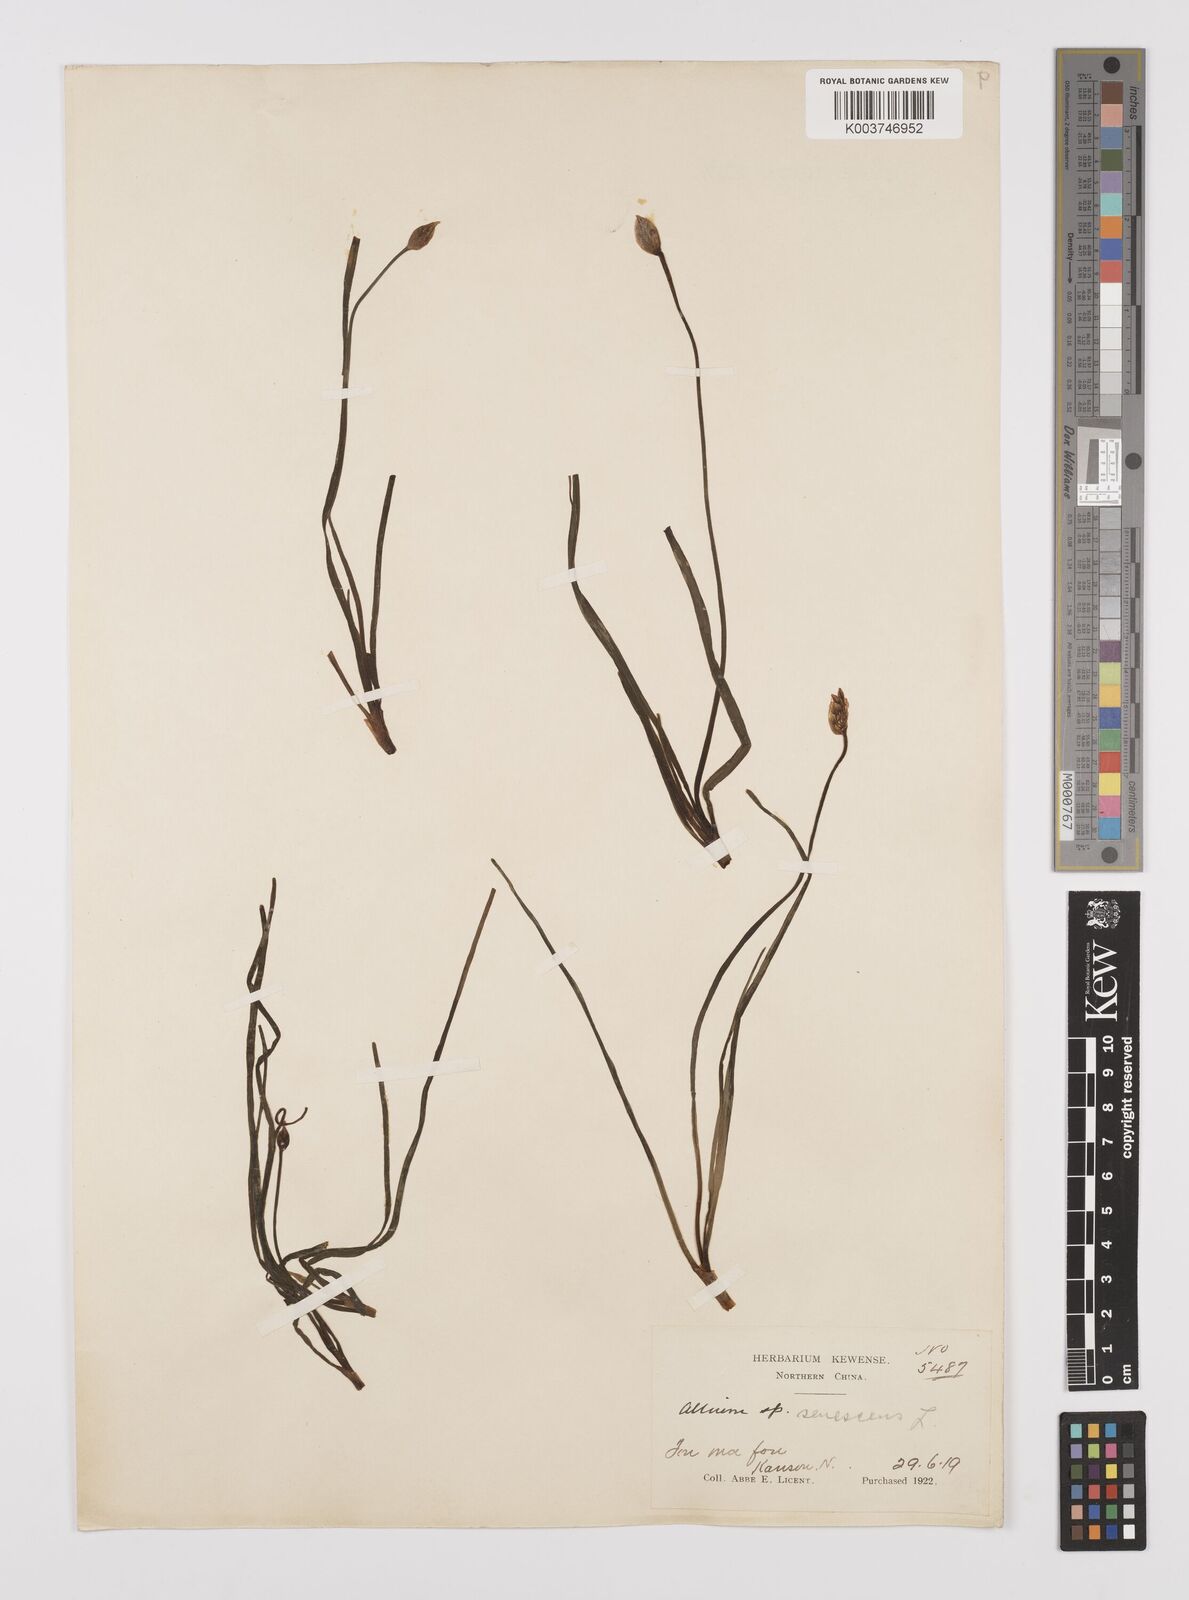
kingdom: Plantae
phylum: Tracheophyta
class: Liliopsida
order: Asparagales
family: Amaryllidaceae
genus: Allium
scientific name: Allium
